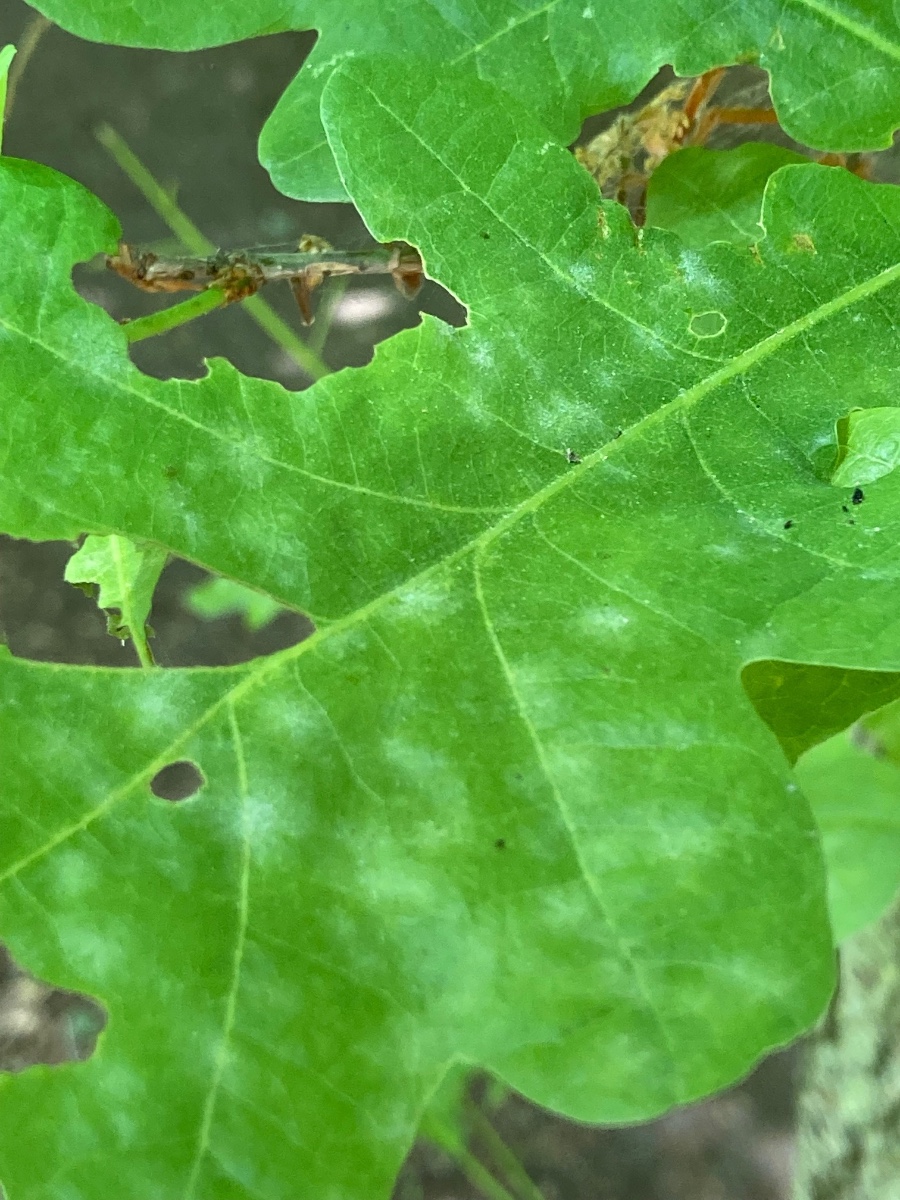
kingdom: Fungi
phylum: Ascomycota
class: Leotiomycetes
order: Helotiales
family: Erysiphaceae
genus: Erysiphe
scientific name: Erysiphe alphitoides
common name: ege-meldug
